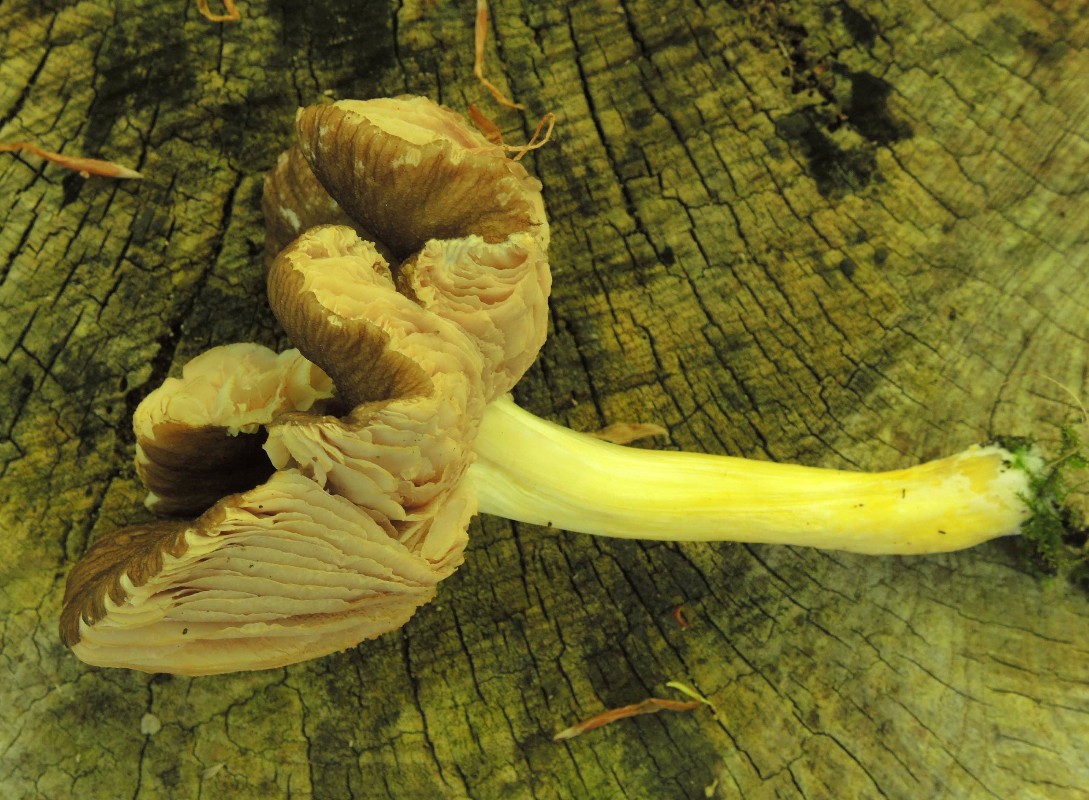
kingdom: Fungi
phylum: Basidiomycota
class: Agaricomycetes
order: Agaricales
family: Pluteaceae
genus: Pluteus
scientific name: Pluteus romellii
